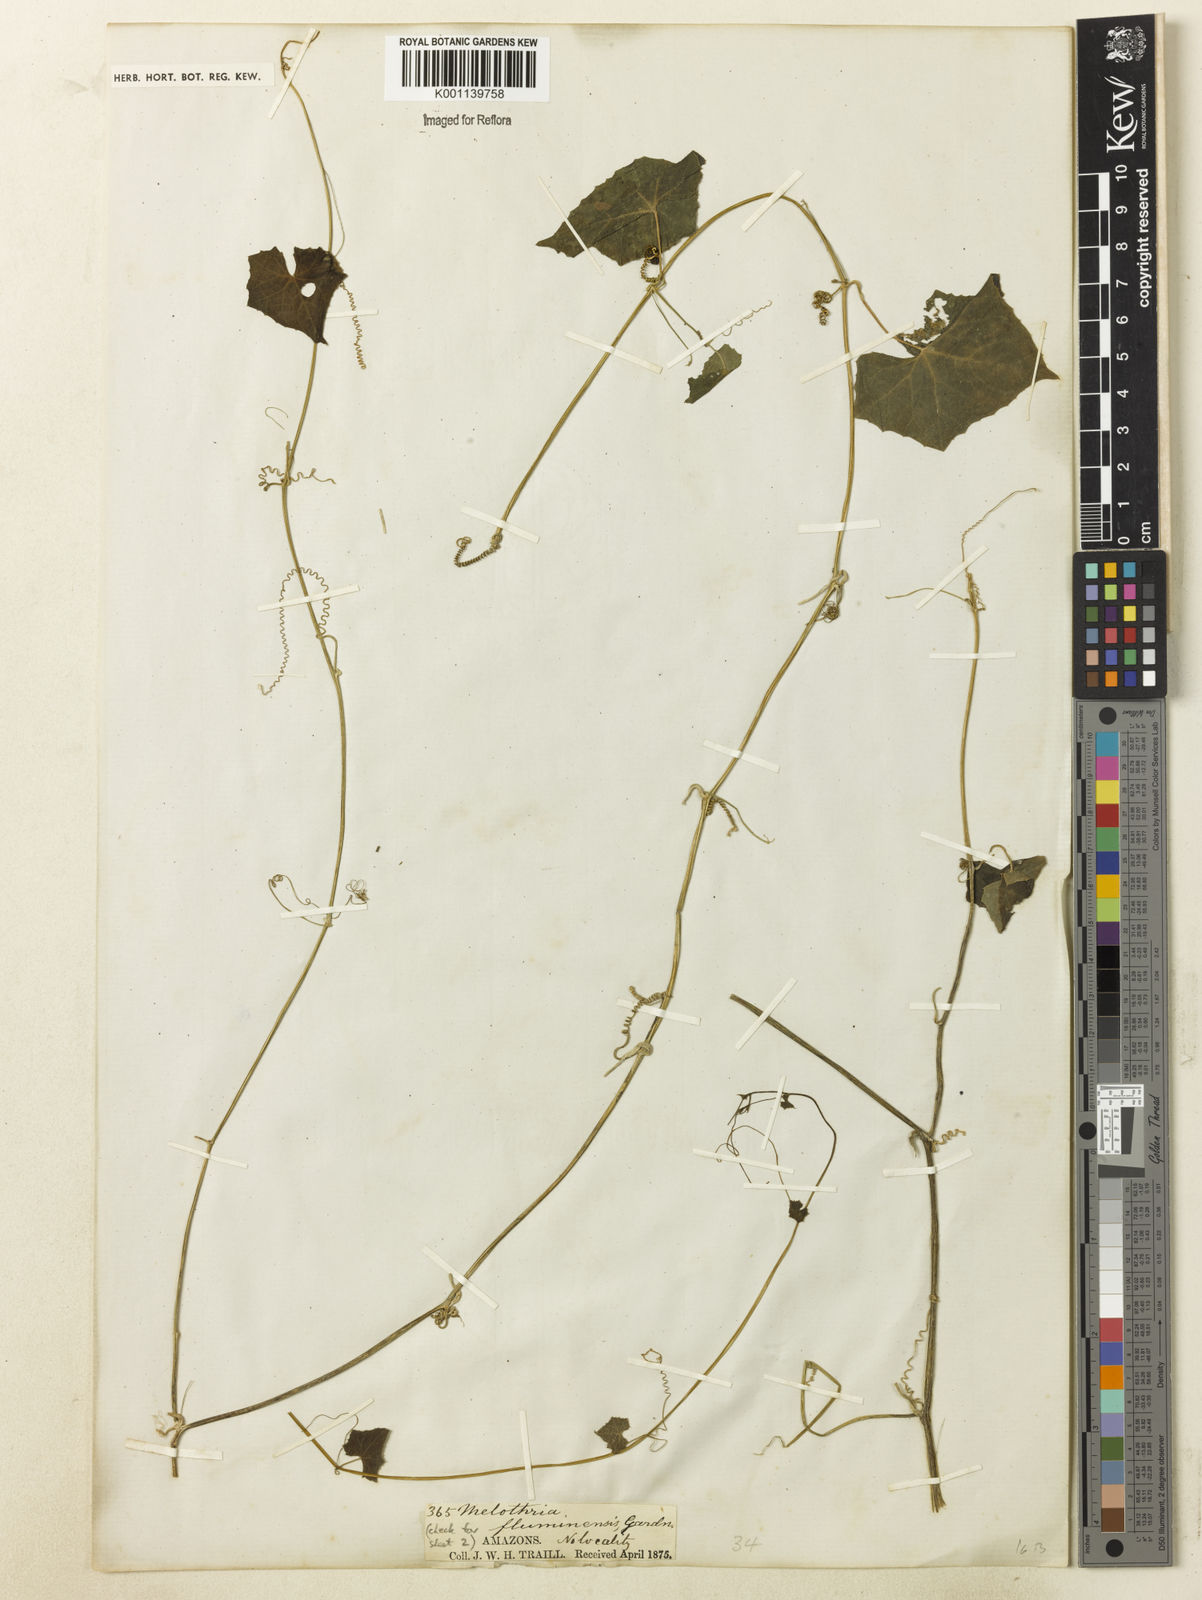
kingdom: Plantae
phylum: Tracheophyta
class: Magnoliopsida
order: Cucurbitales
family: Cucurbitaceae
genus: Melothria
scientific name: Melothria pendula
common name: Creeping-cucumber
